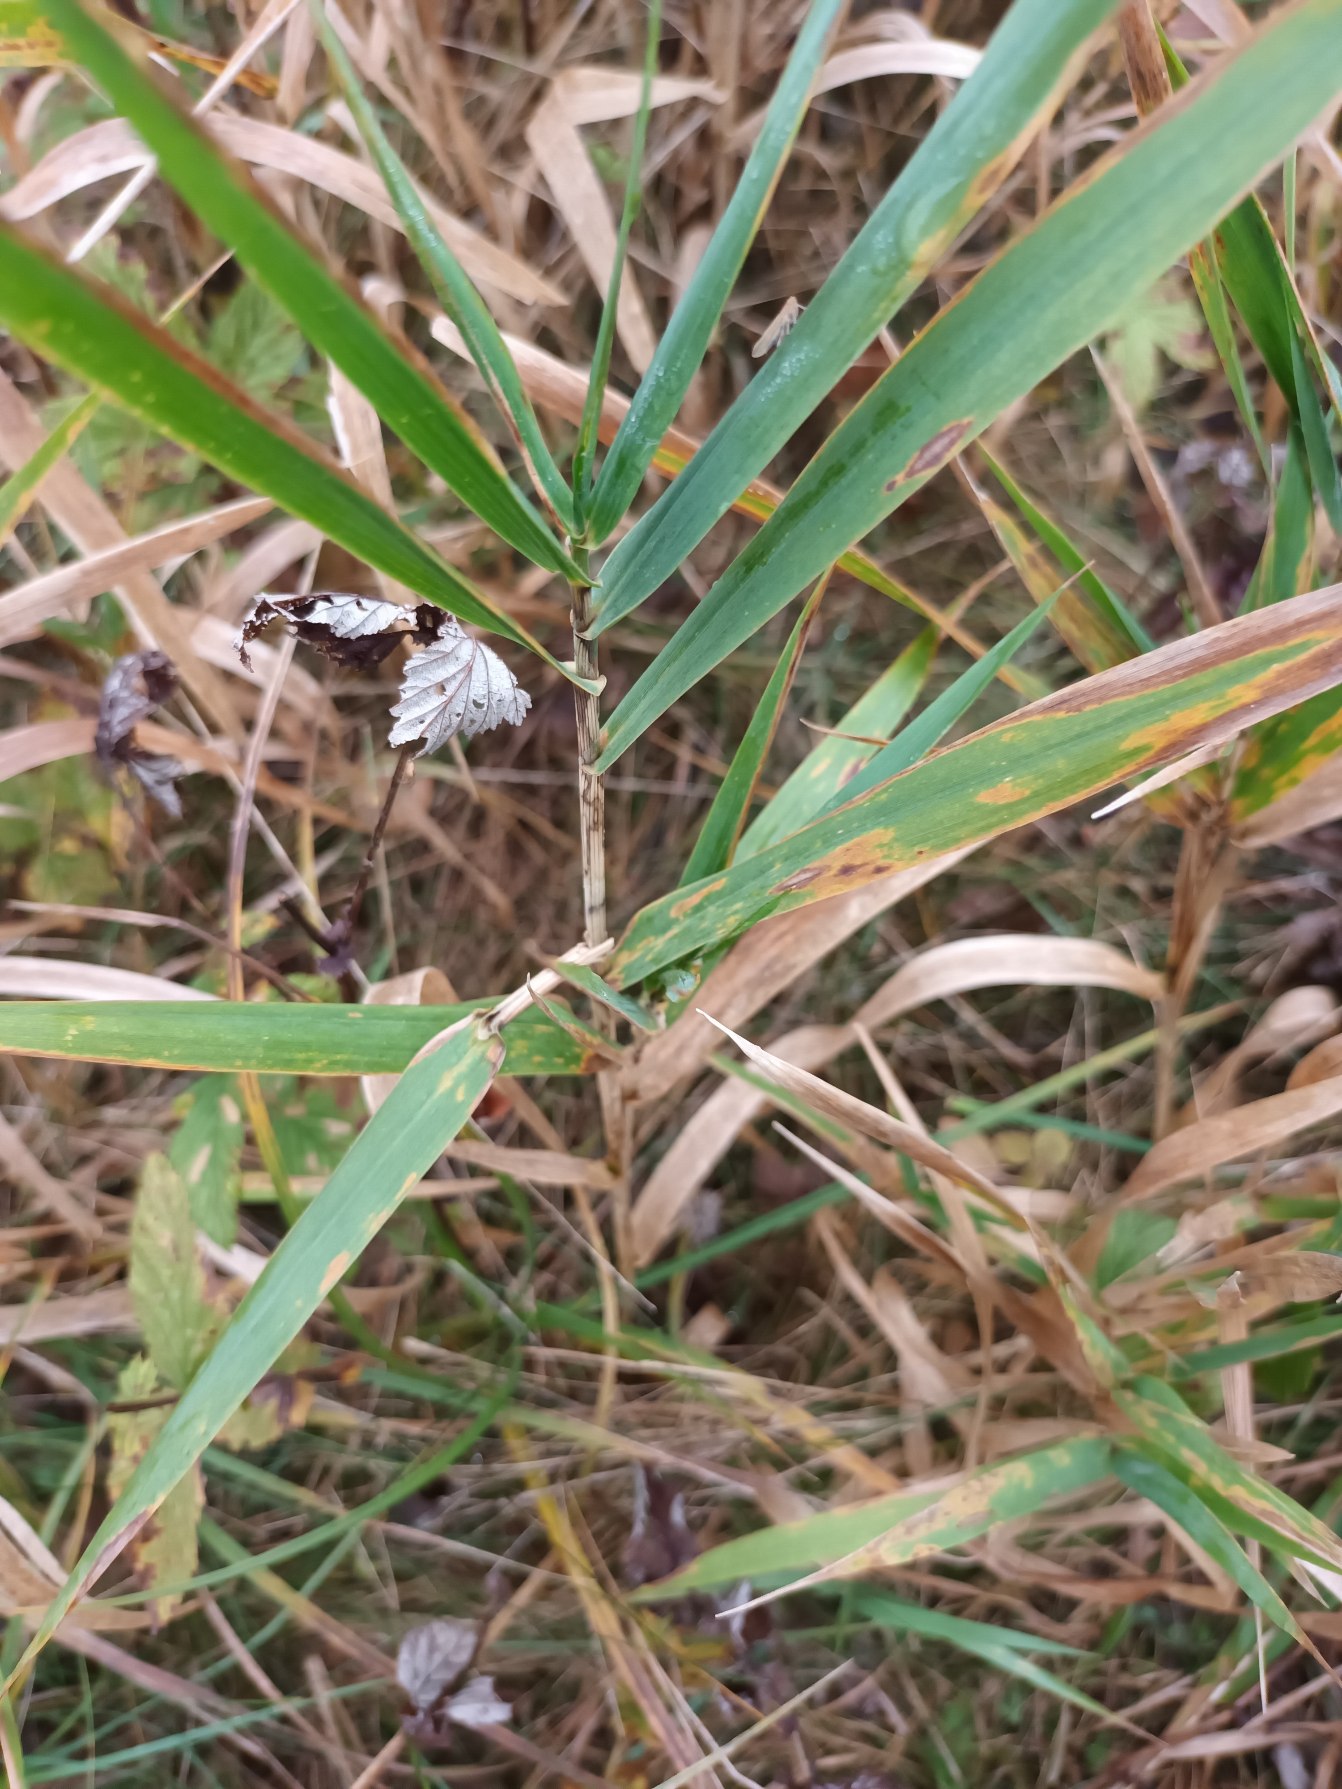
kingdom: Plantae
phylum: Tracheophyta
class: Liliopsida
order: Poales
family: Poaceae
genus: Phalaris
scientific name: Phalaris arundinacea
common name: Rørgræs
